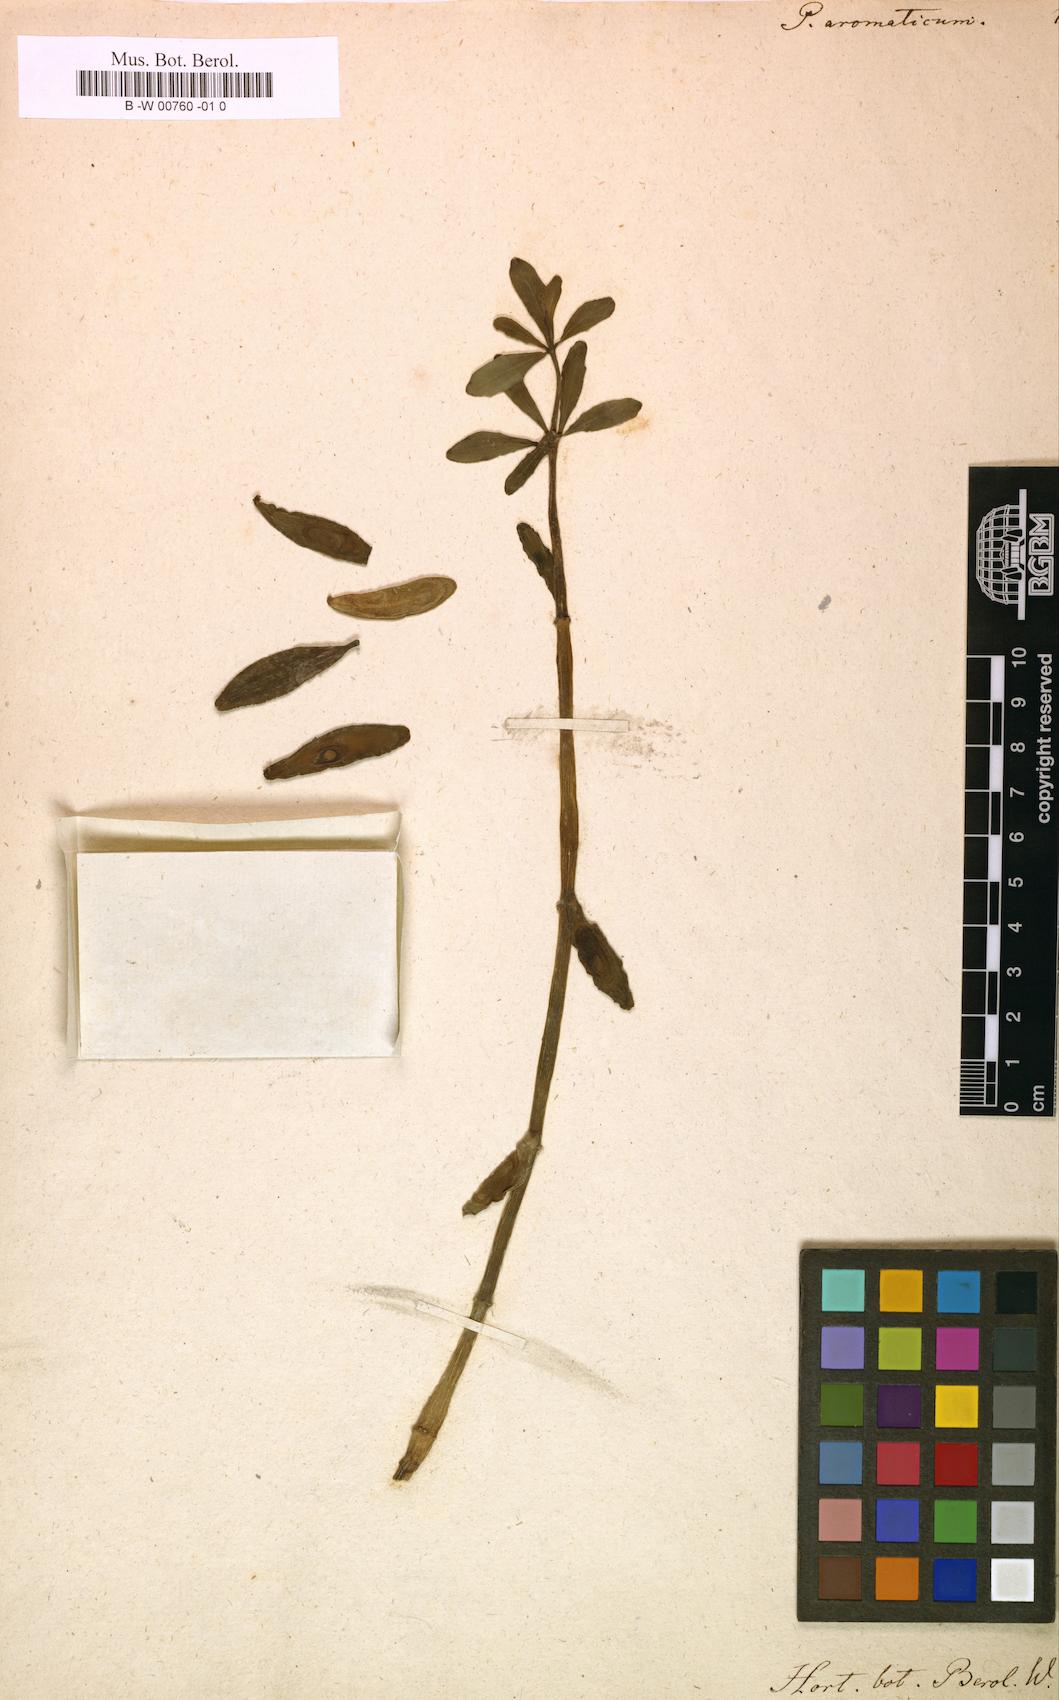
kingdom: Plantae
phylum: Tracheophyta
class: Magnoliopsida
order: Piperales
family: Piperaceae
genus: Peperomia
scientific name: Peperomia inaequalifolia
